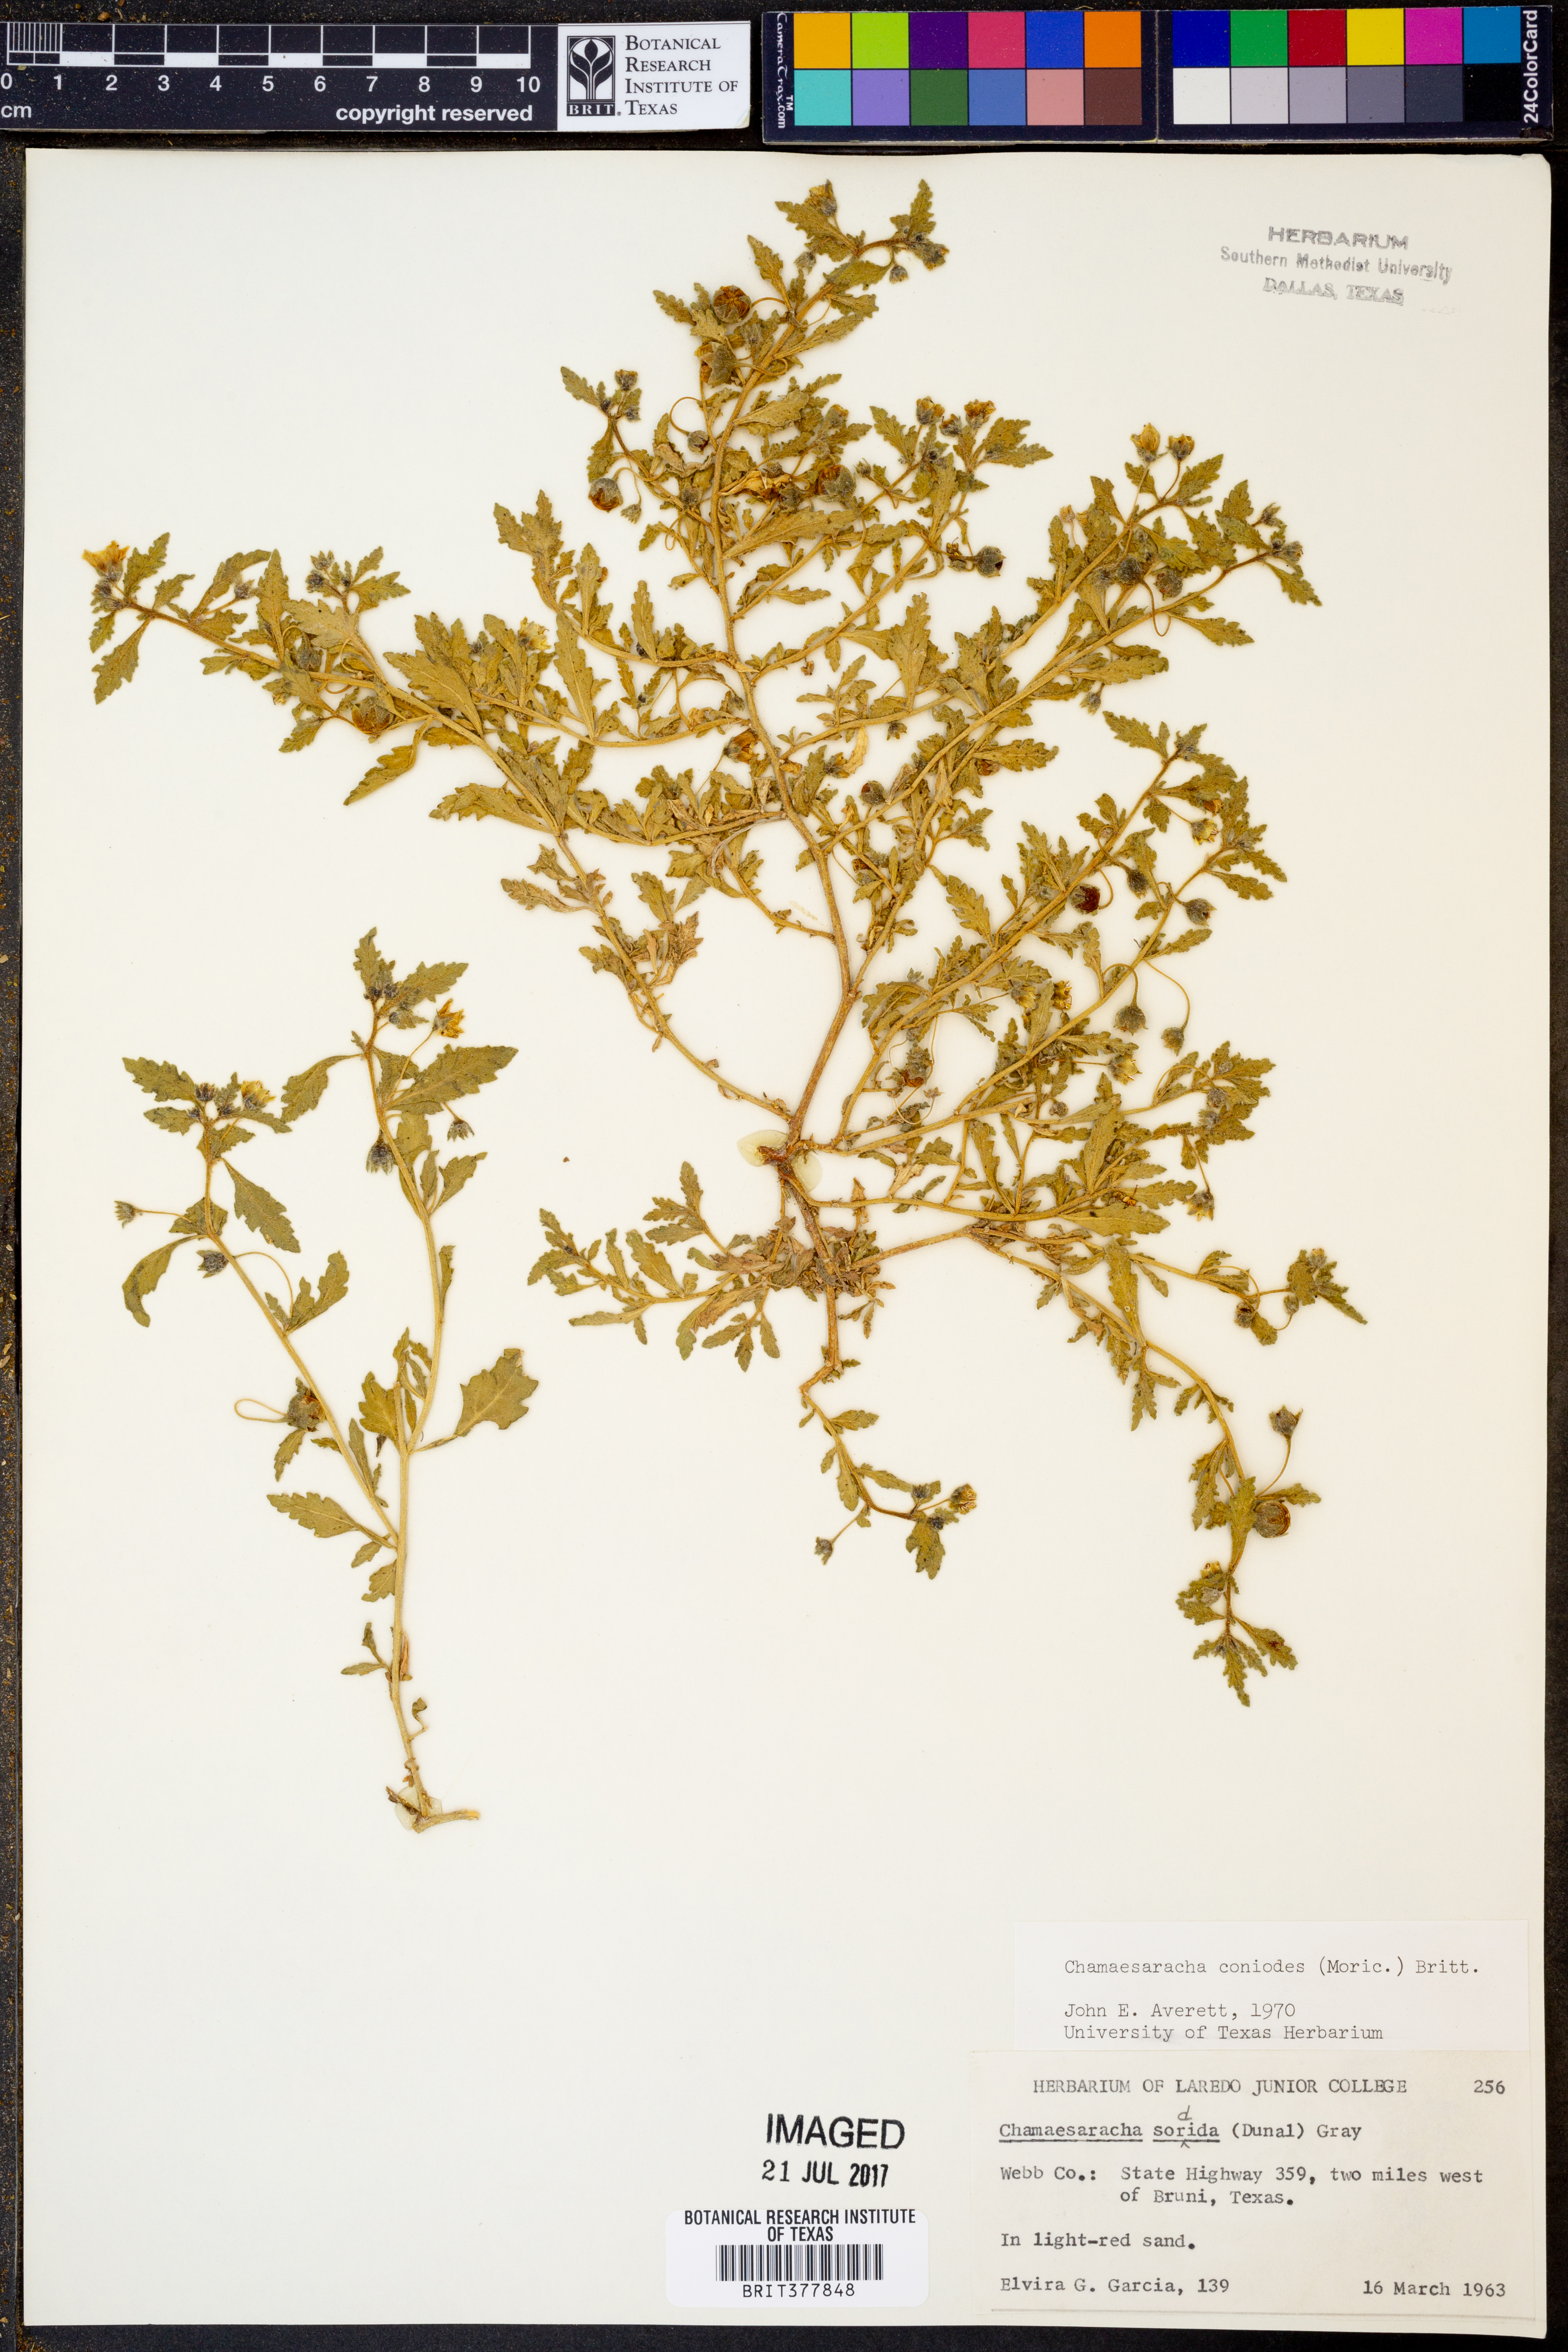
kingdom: Plantae
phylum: Tracheophyta
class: Magnoliopsida
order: Solanales
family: Solanaceae
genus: Chamaesaracha
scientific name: Chamaesaracha coniodes
